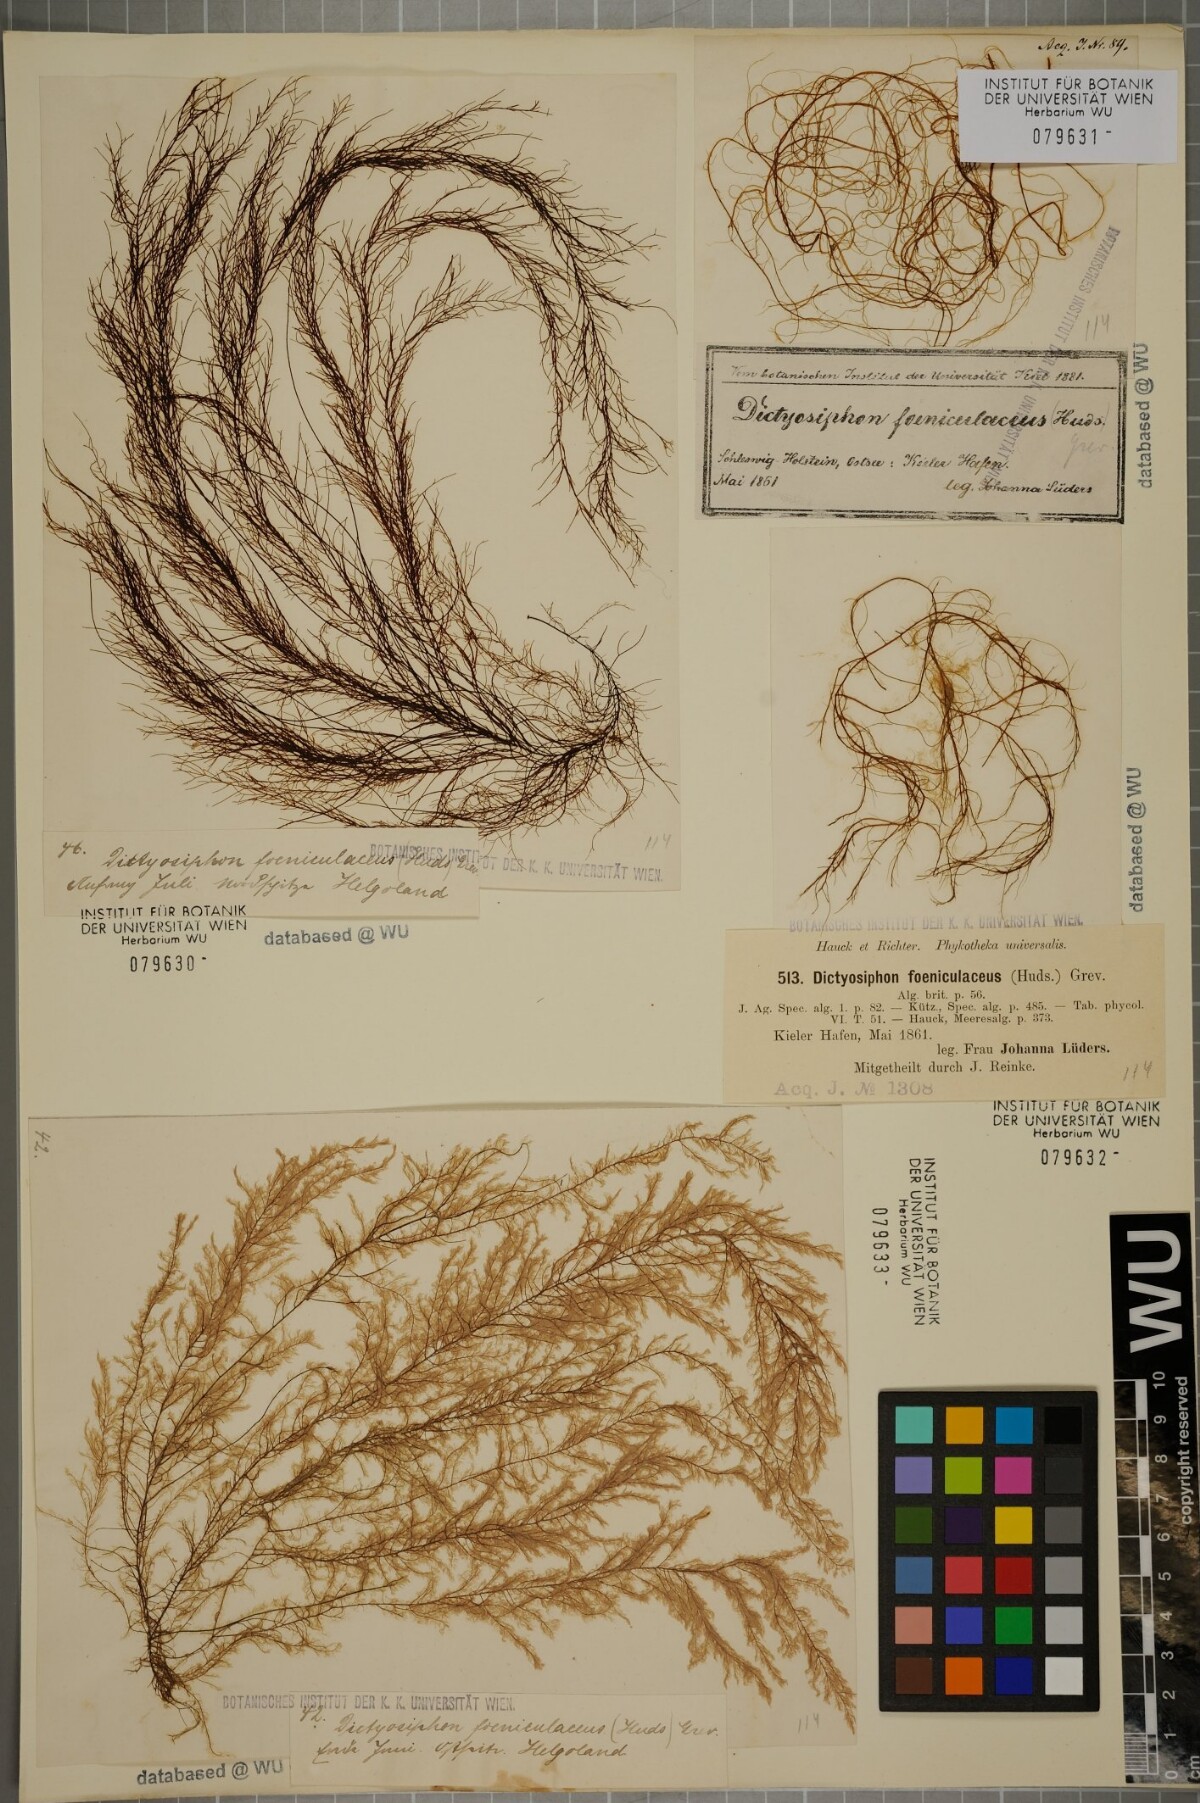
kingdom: Chromista
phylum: Ochrophyta
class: Phaeophyceae
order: Ectocarpales
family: Chordariaceae
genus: Dictyosiphon
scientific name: Dictyosiphon foeniculaceus
